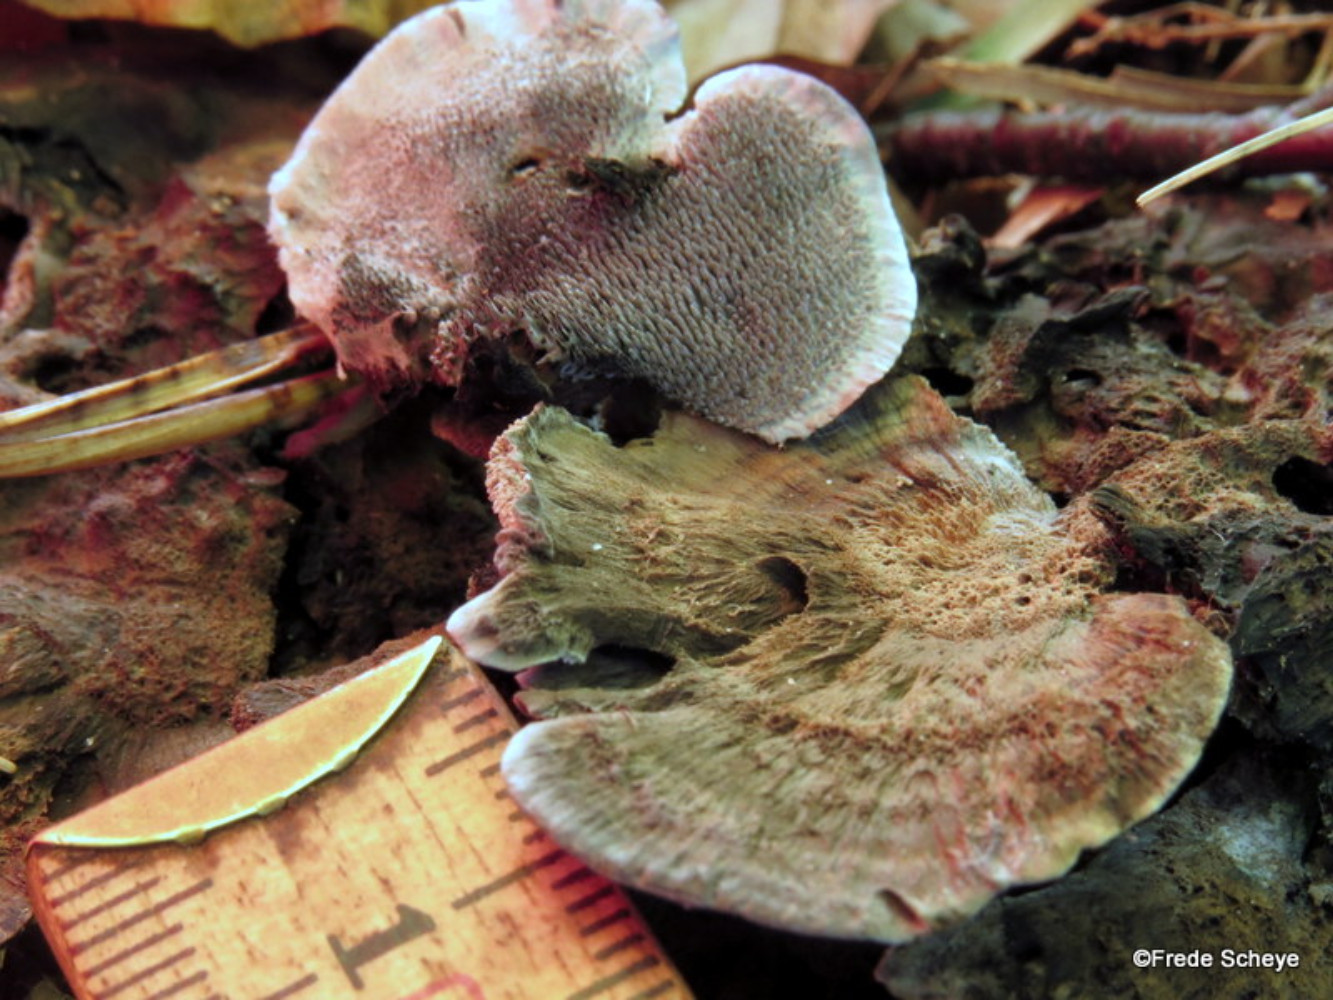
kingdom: Fungi
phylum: Basidiomycota
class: Agaricomycetes
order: Thelephorales
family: Thelephoraceae
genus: Phellodon
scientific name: Phellodon niger
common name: Black tooth
